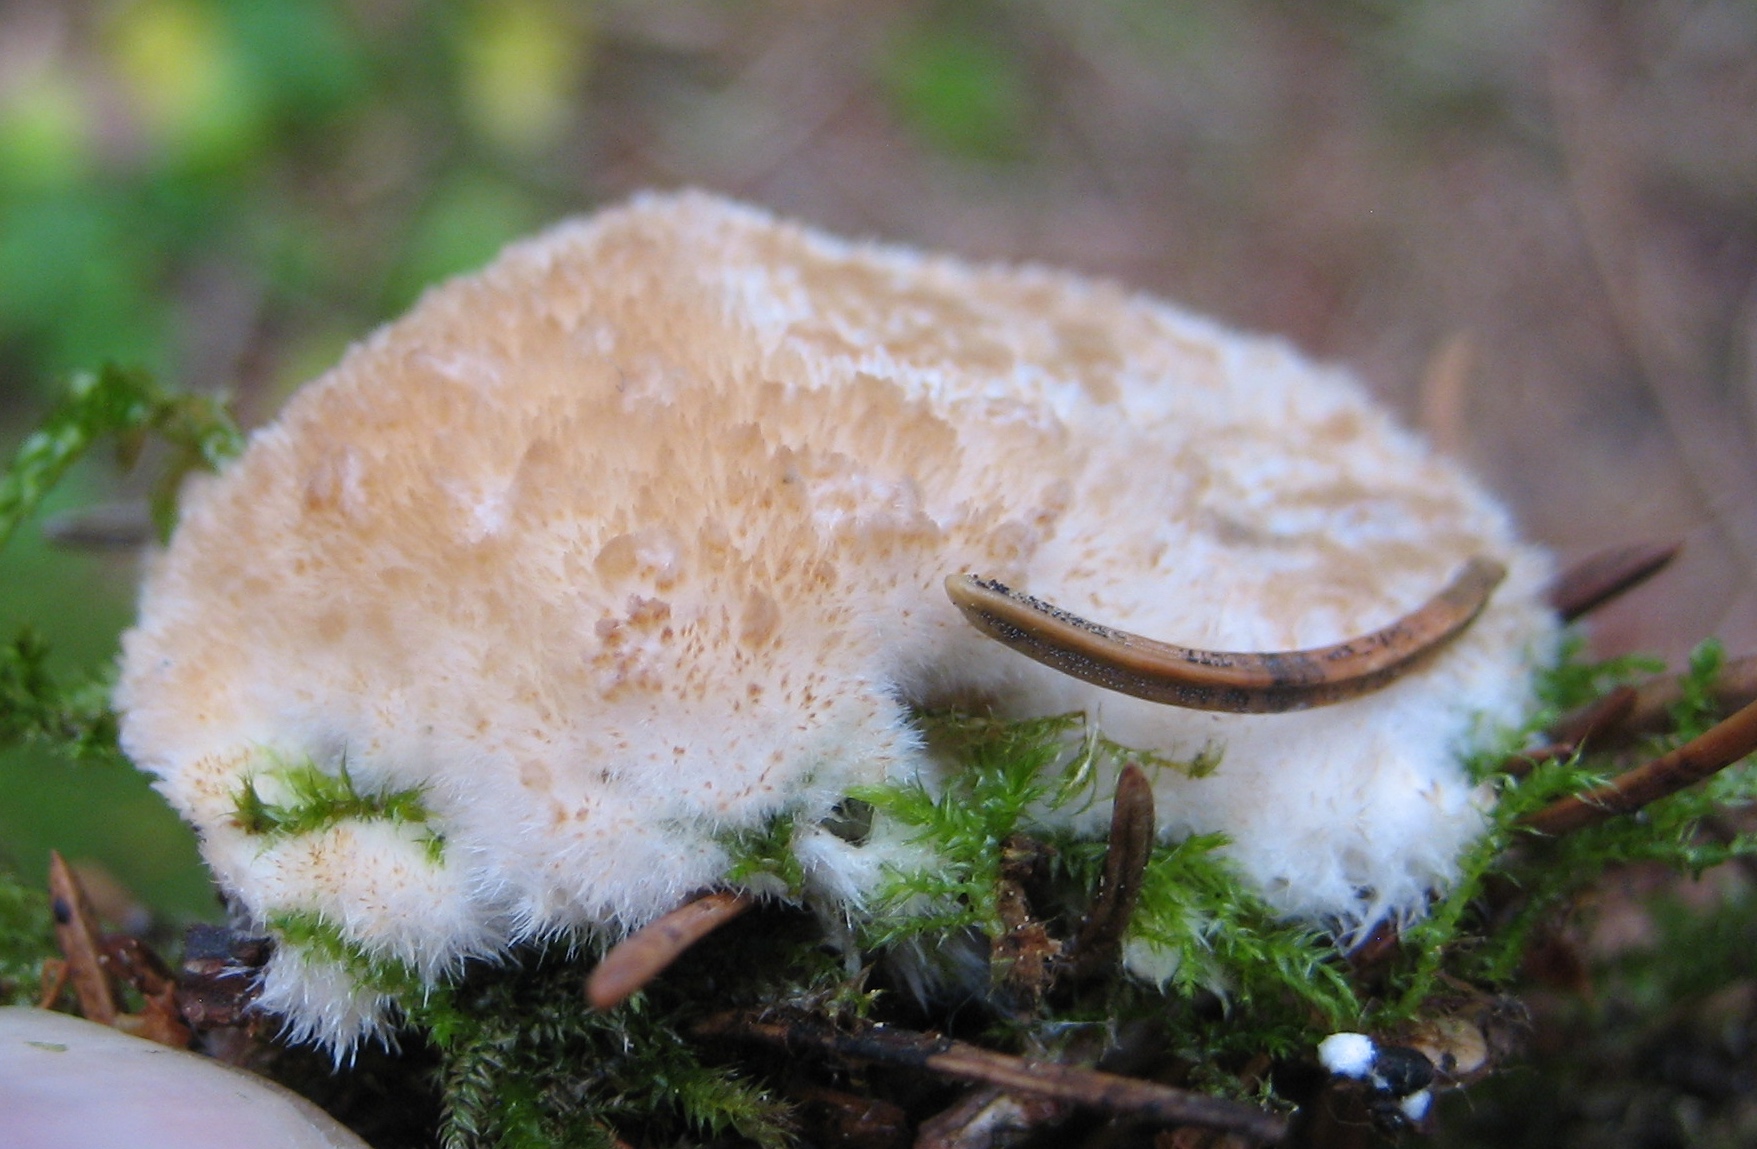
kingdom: Fungi
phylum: Basidiomycota
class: Agaricomycetes
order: Polyporales
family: Dacryobolaceae
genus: Postia
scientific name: Postia ptychogaster
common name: støvende kødporesvamp
